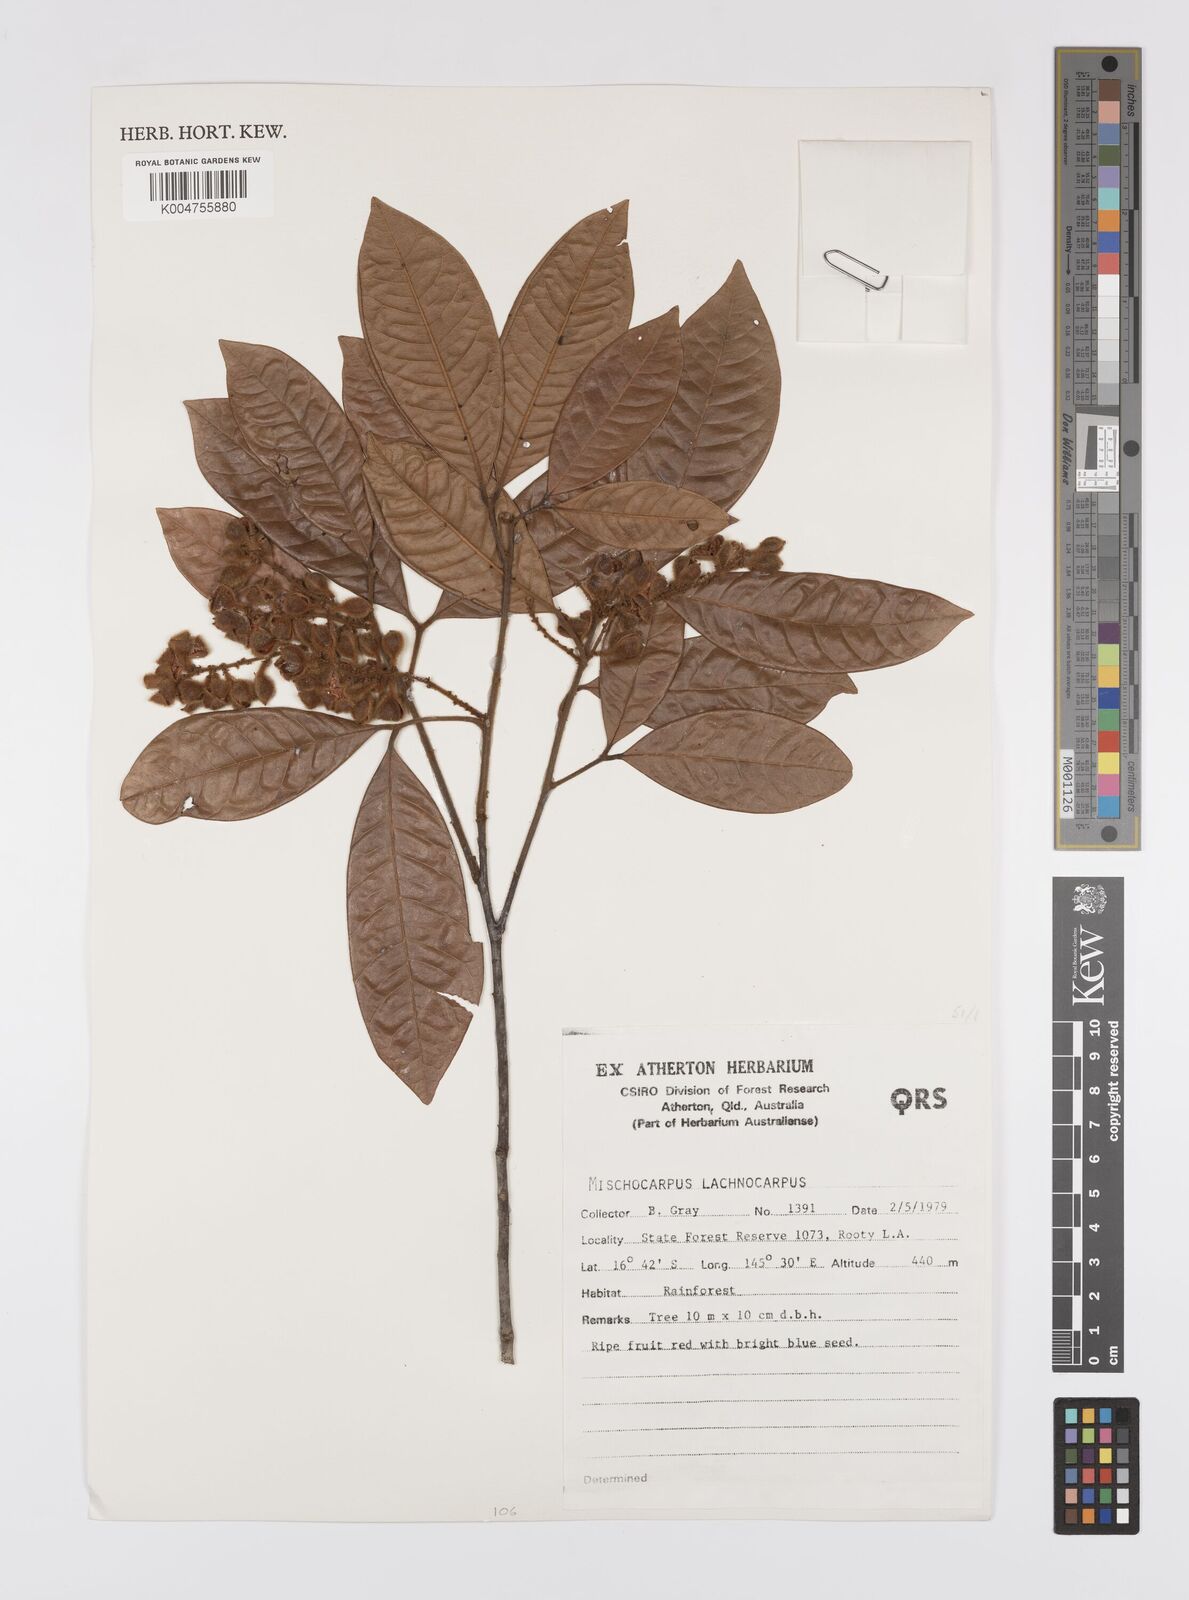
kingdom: Plantae
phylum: Tracheophyta
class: Magnoliopsida
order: Sapindales
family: Sapindaceae
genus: Mischocarpus
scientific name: Mischocarpus lachnocarpus
